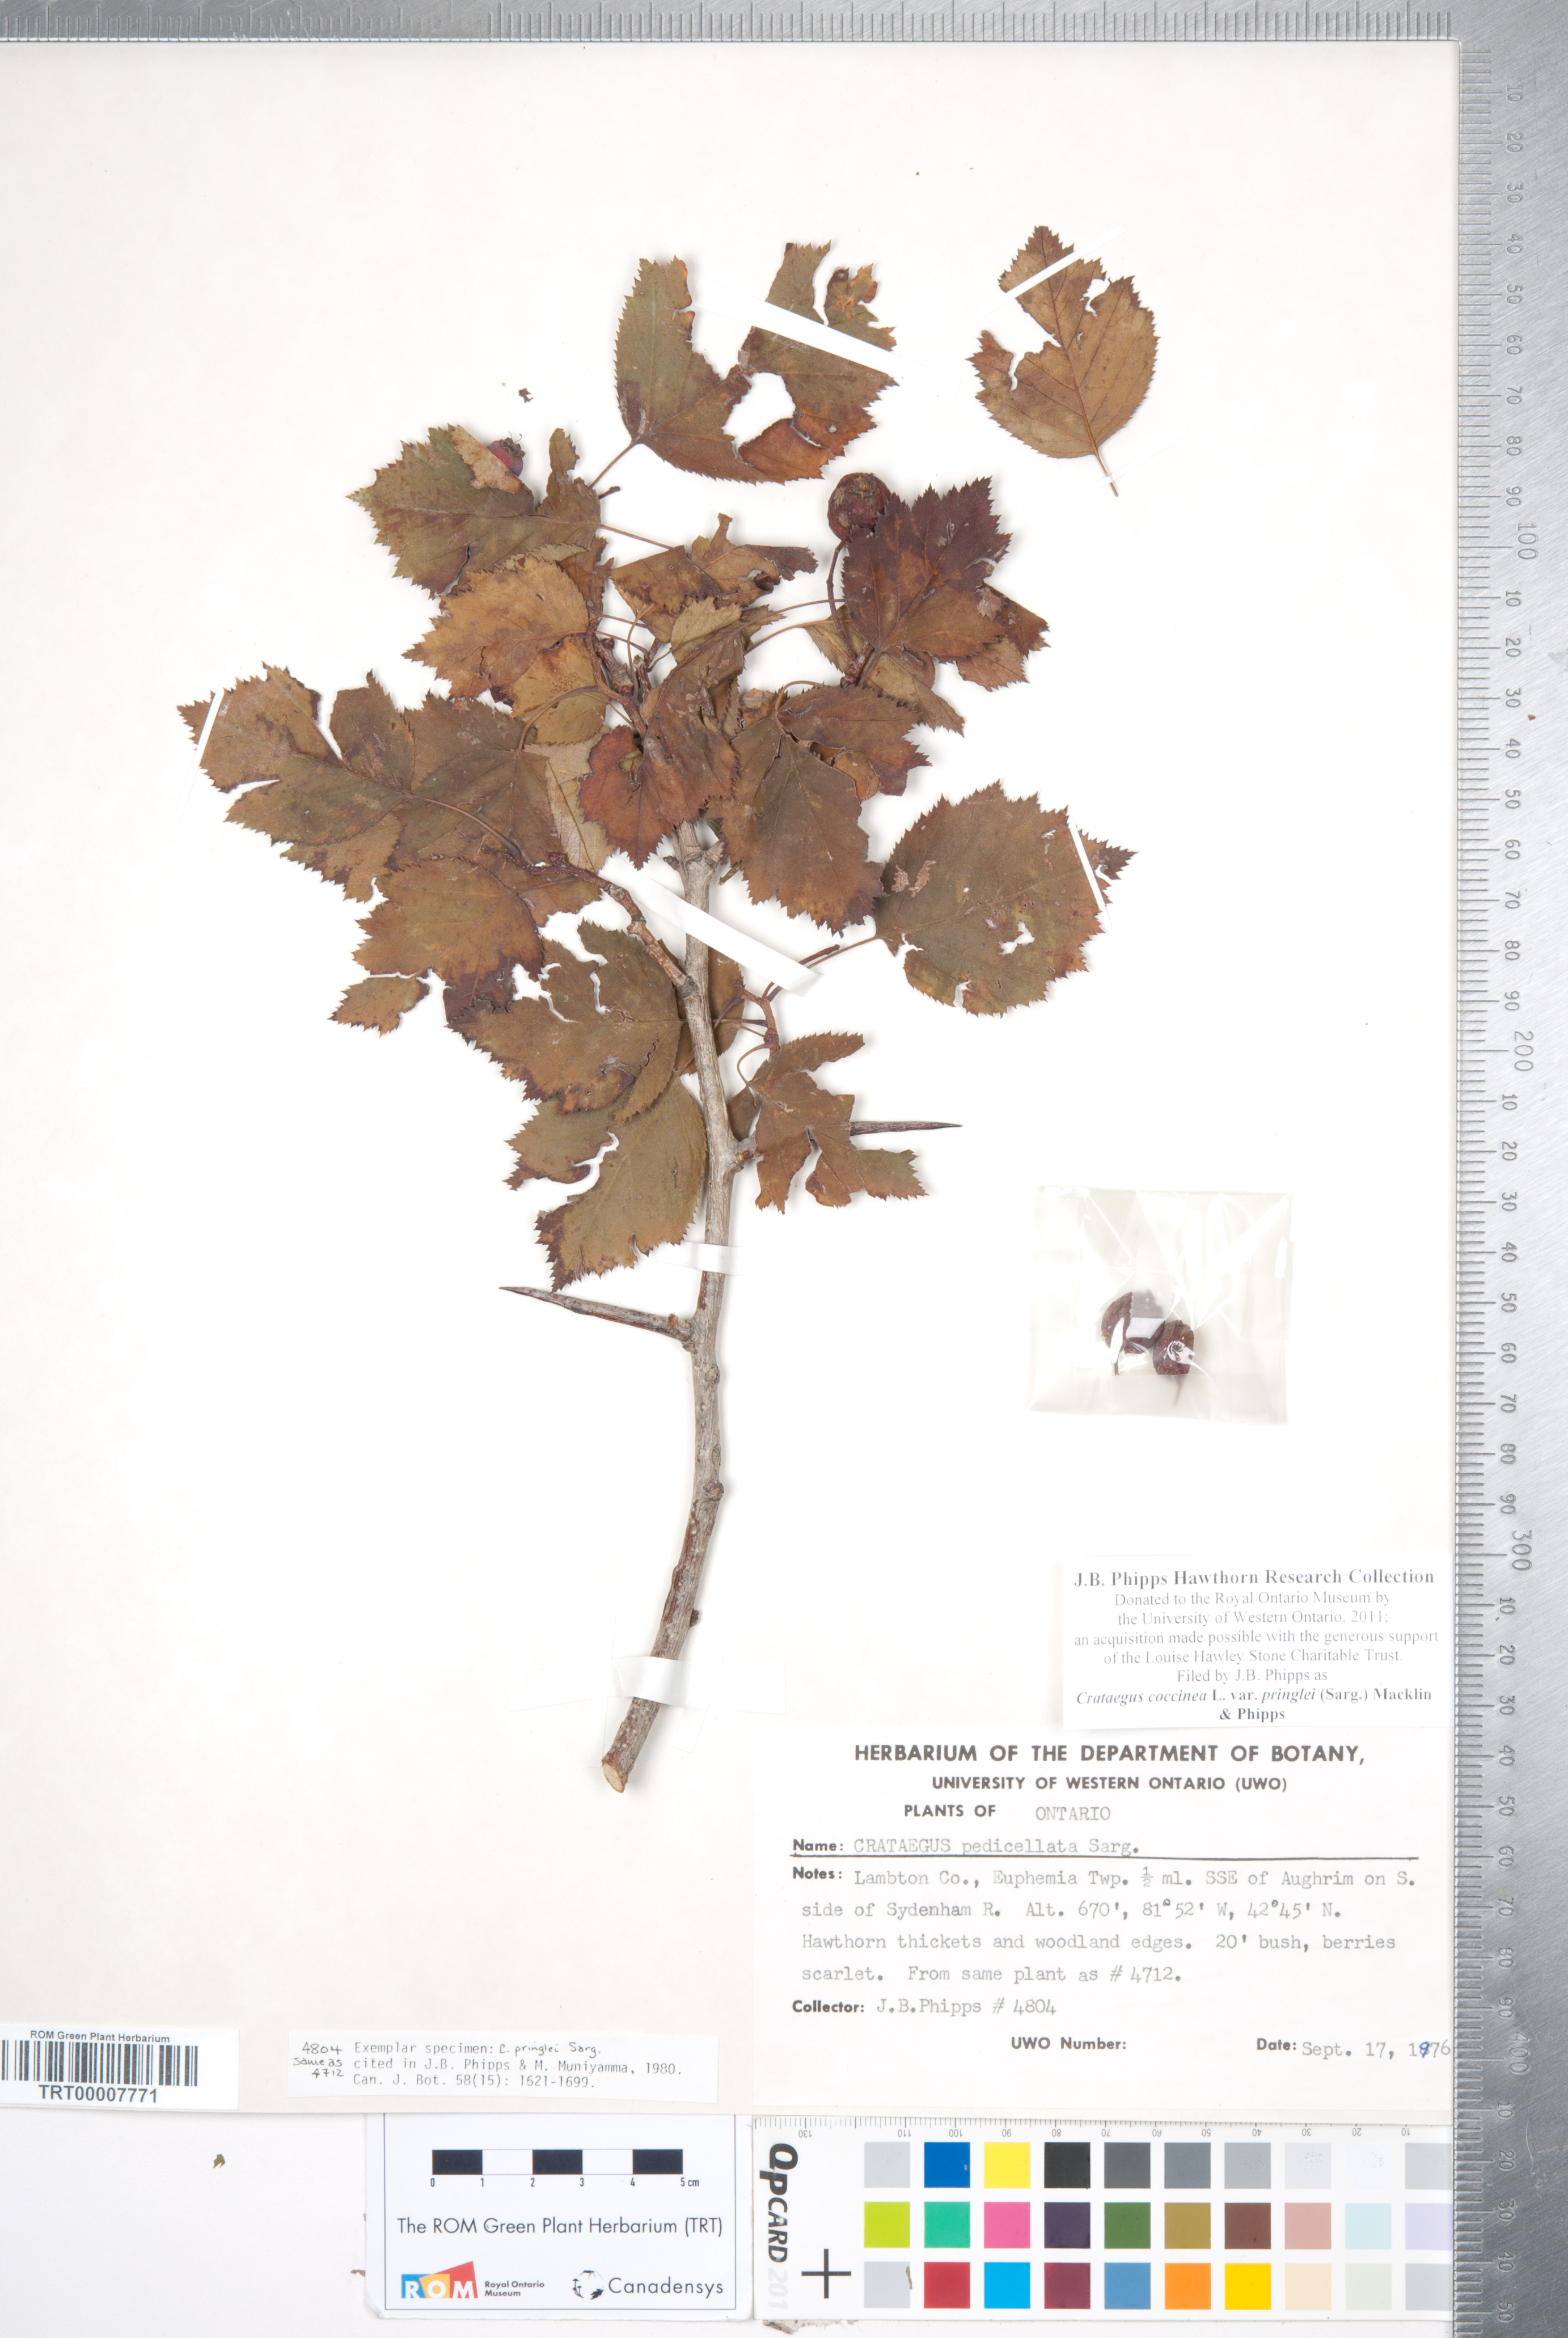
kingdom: Plantae
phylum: Tracheophyta
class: Magnoliopsida
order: Rosales
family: Rosaceae
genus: Crataegus
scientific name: Crataegus coccinea
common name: Scarlet hawthorn
